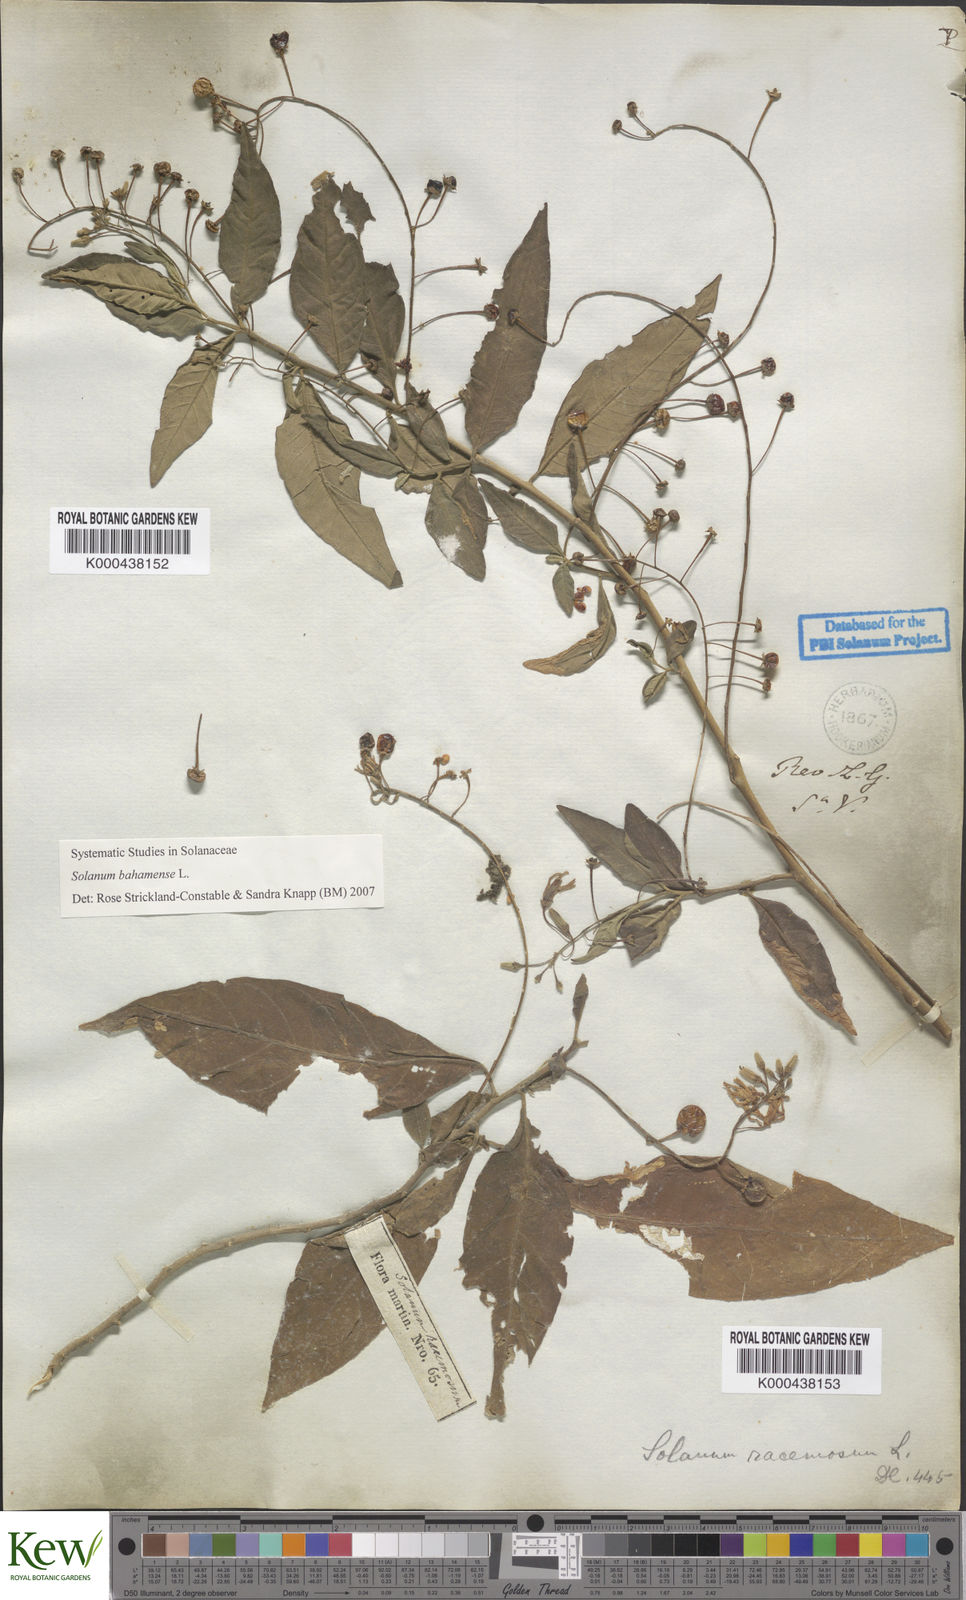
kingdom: Plantae
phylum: Tracheophyta
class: Magnoliopsida
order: Solanales
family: Solanaceae
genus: Solanum
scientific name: Solanum bahamense
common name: Canker-berry
